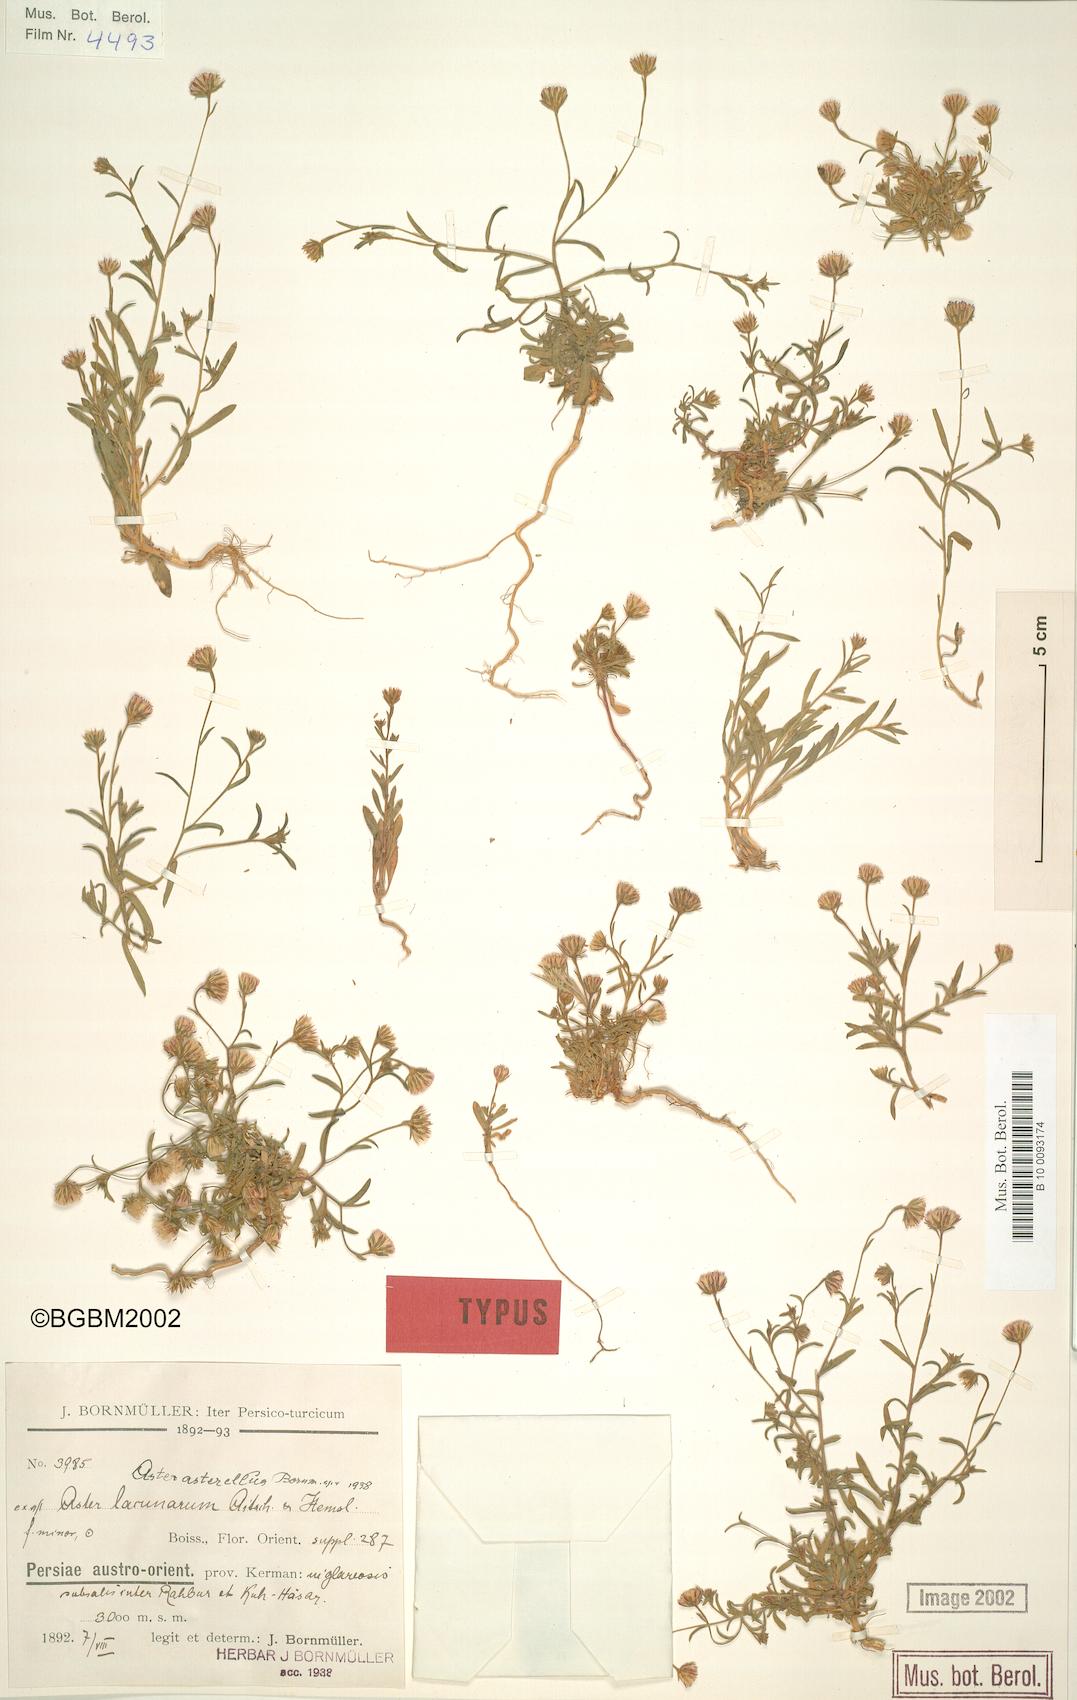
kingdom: Plantae
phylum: Tracheophyta
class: Magnoliopsida
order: Asterales
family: Asteraceae
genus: Chamaegeron
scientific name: Chamaegeron asterellus
